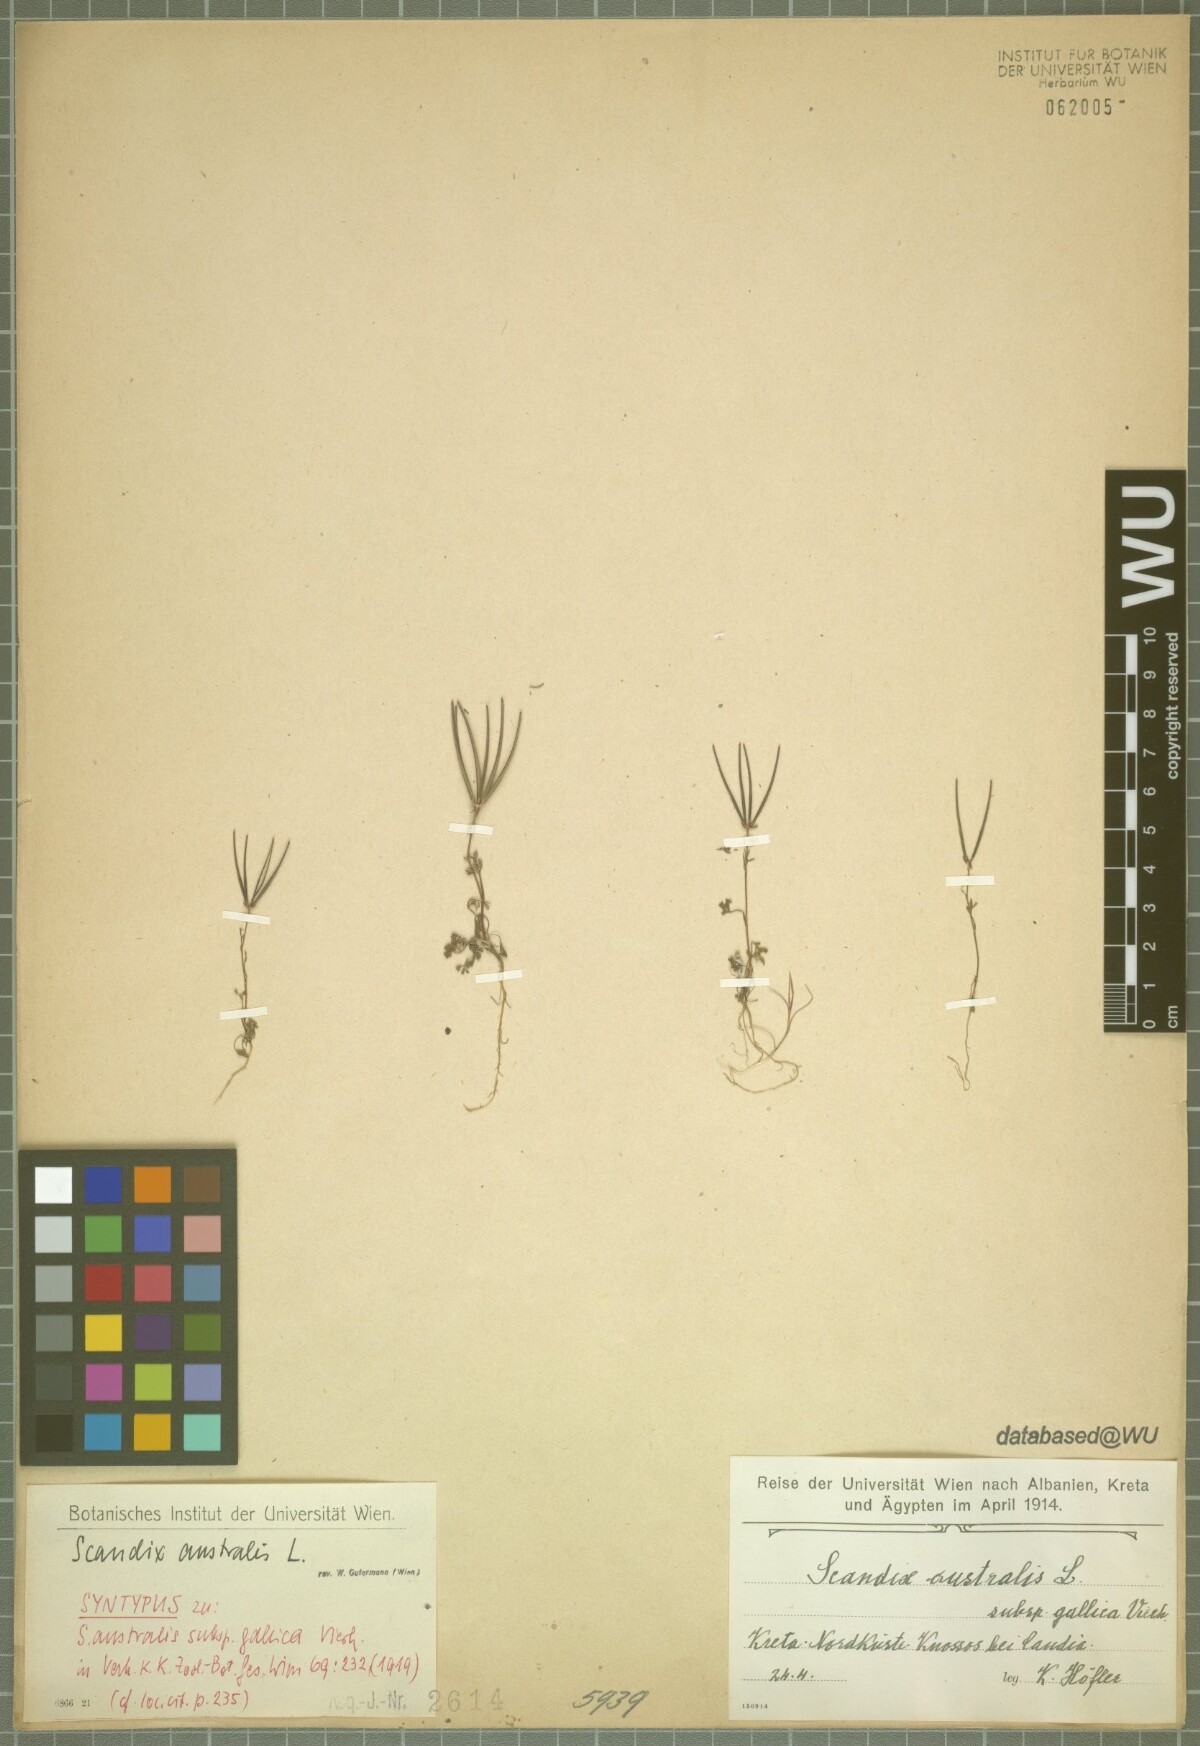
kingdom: Plantae
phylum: Tracheophyta
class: Magnoliopsida
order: Apiales
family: Apiaceae
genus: Scandix
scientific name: Scandix australis
